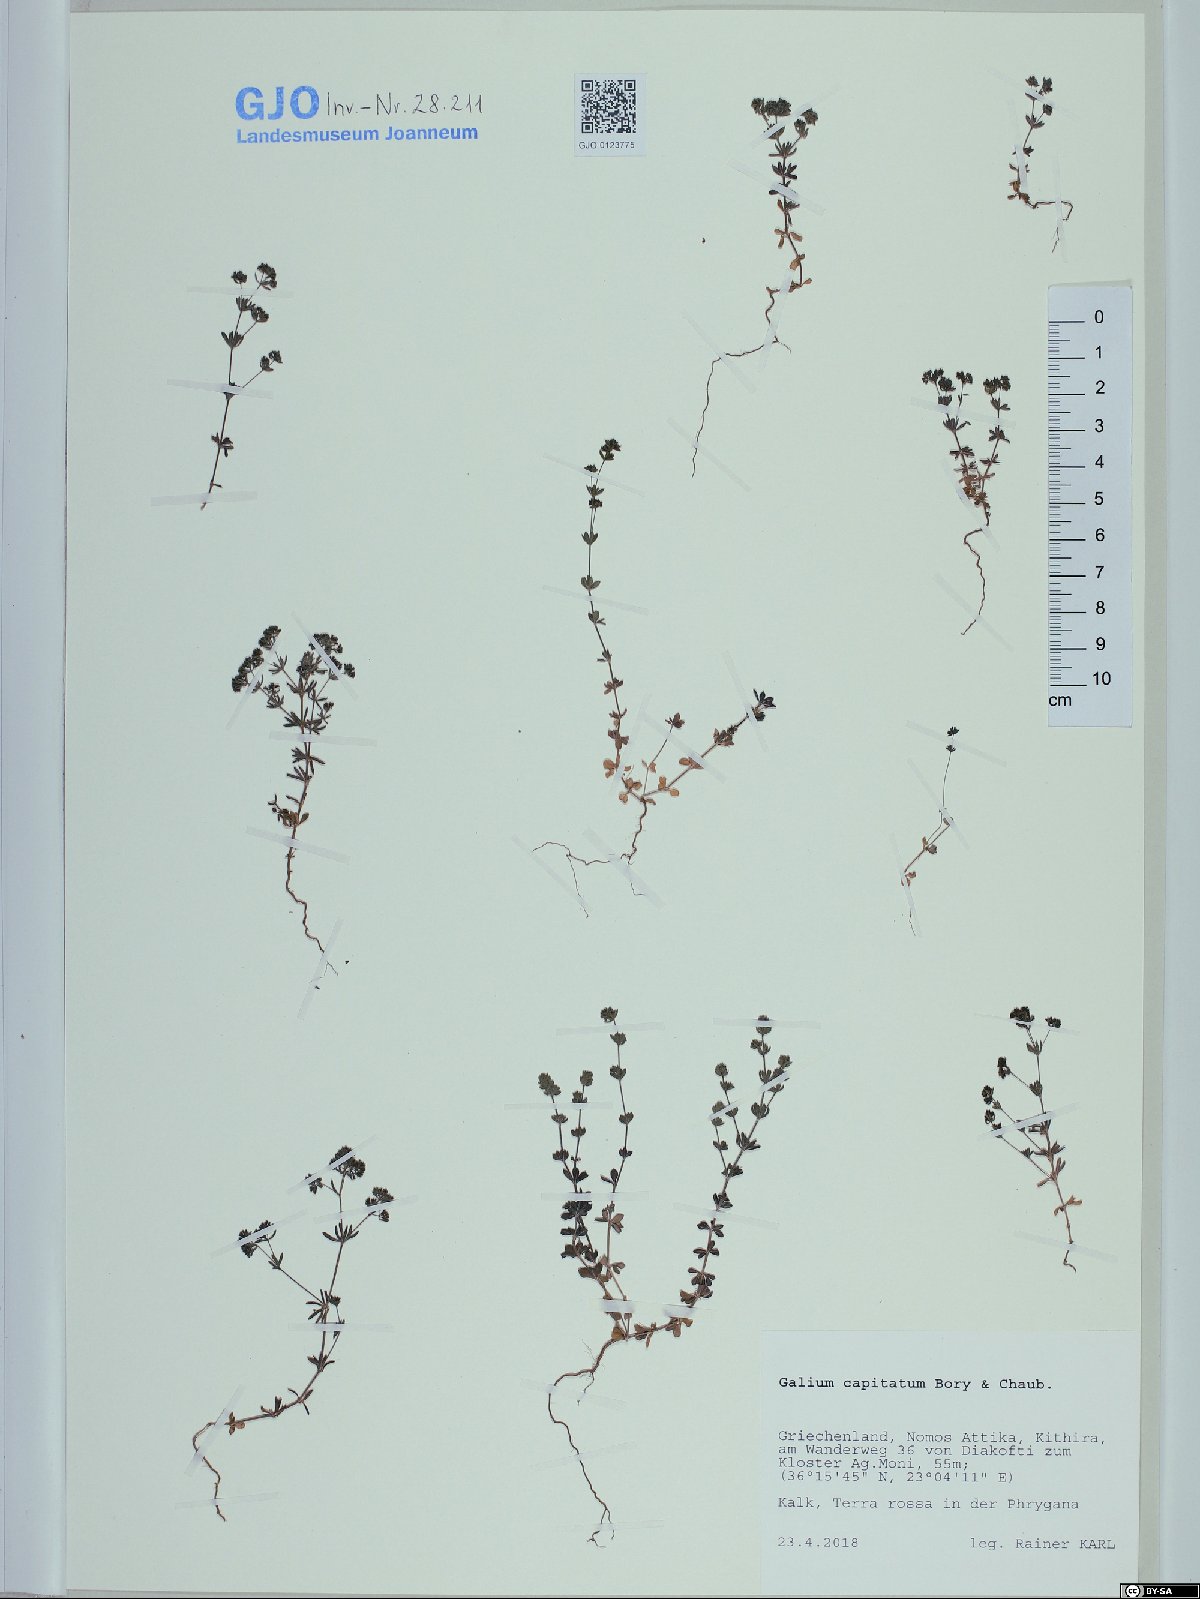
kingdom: Plantae
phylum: Tracheophyta
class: Magnoliopsida
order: Gentianales
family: Rubiaceae
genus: Galium
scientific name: Galium capitatum
